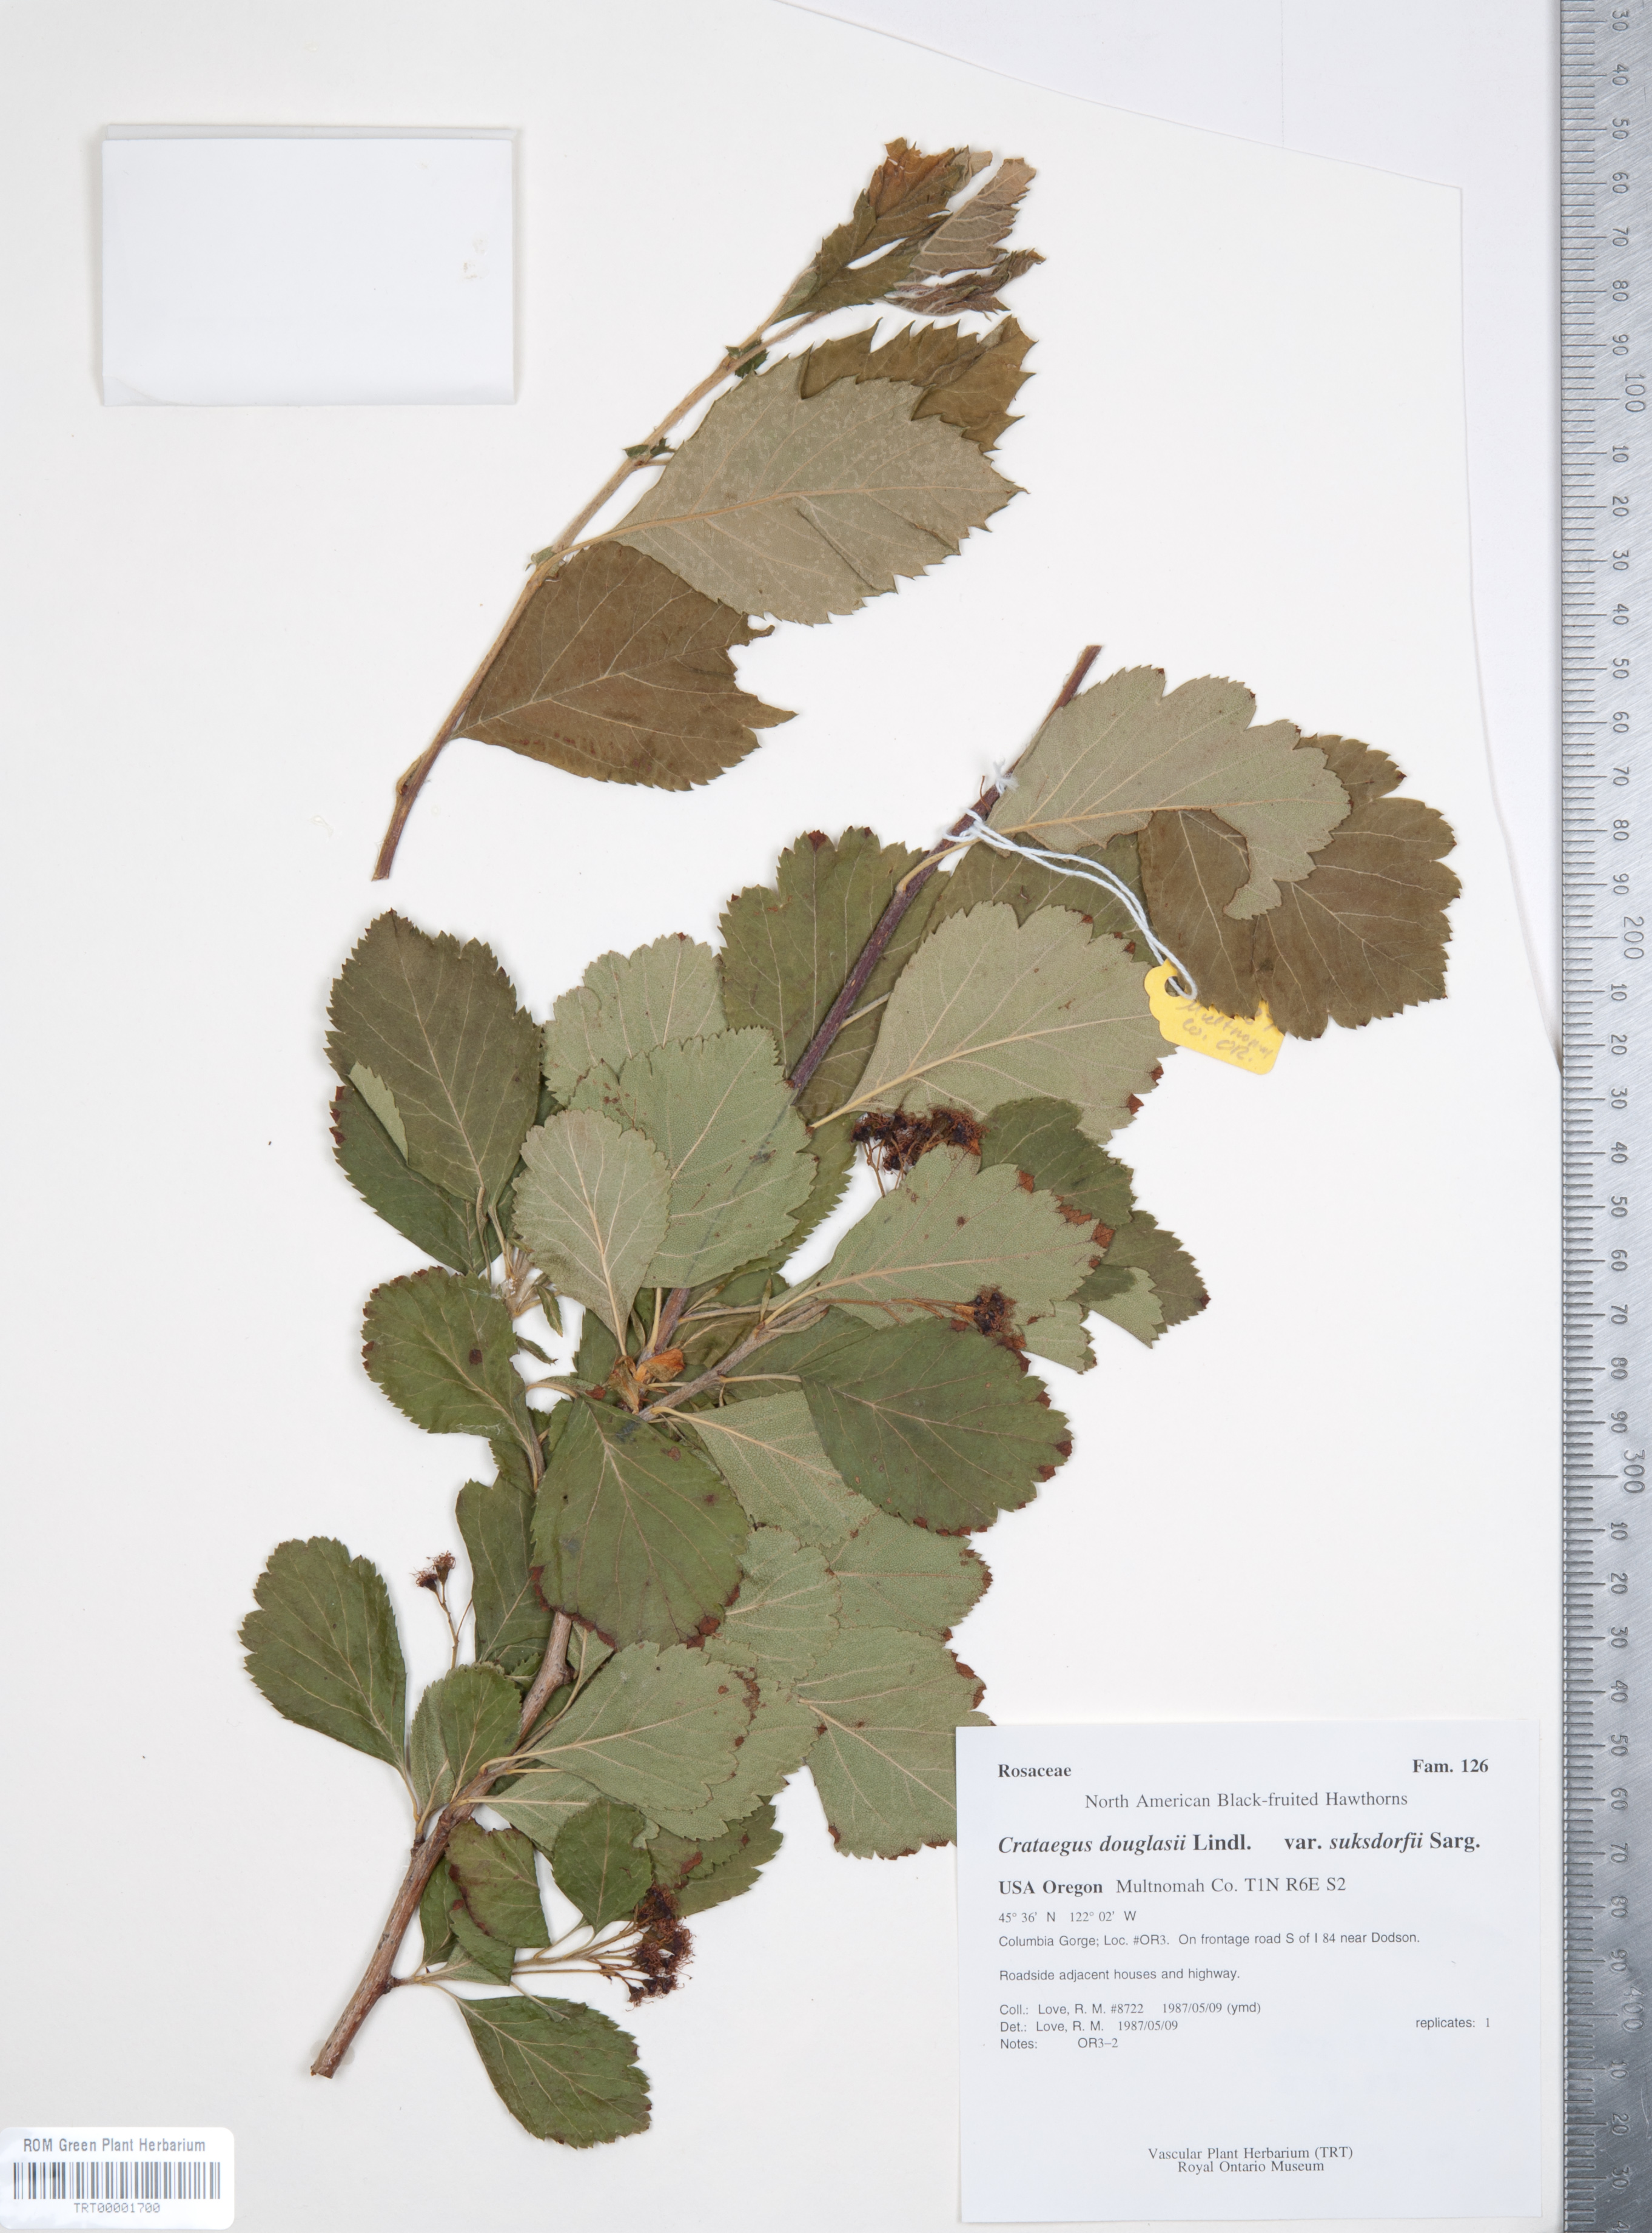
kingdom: Plantae
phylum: Tracheophyta
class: Magnoliopsida
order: Rosales
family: Rosaceae
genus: Crataegus
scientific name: Crataegus gaylussacia
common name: Huckleberry hawthorn
